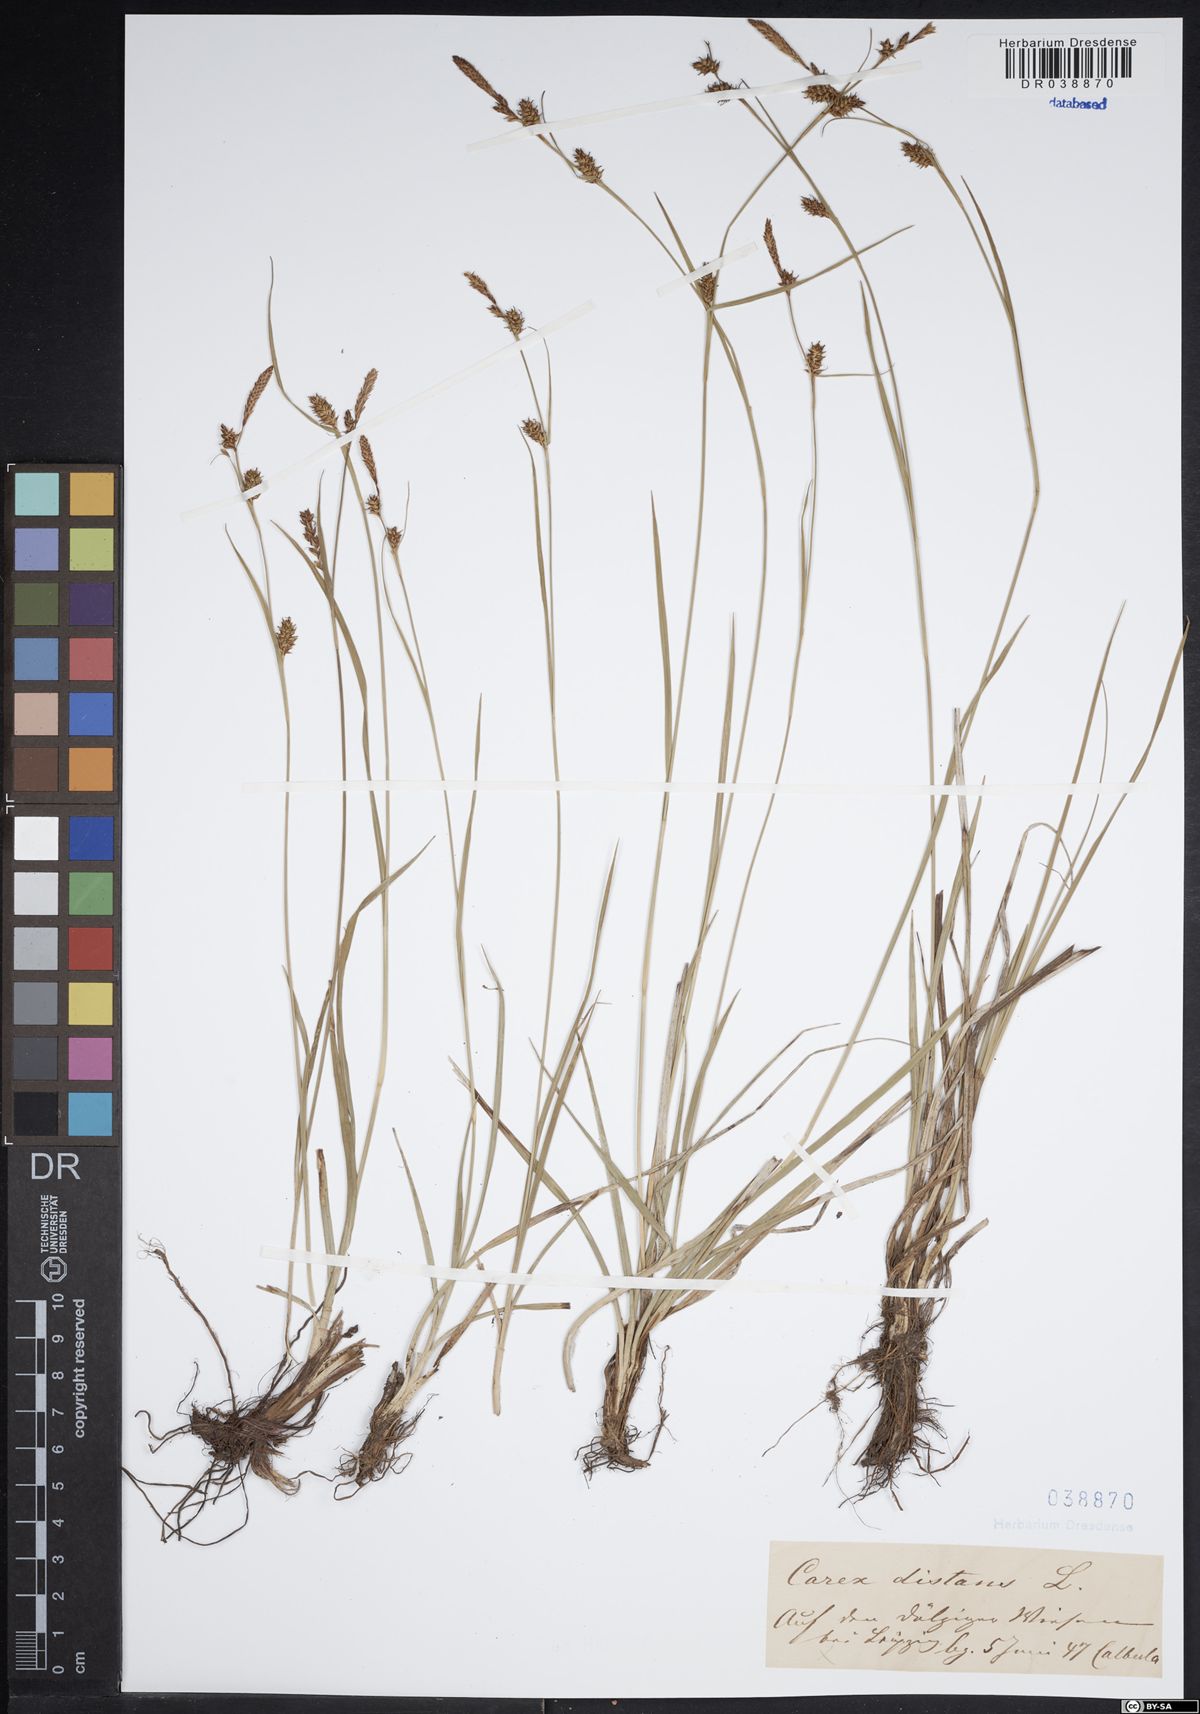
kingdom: Plantae
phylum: Tracheophyta
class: Liliopsida
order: Poales
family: Cyperaceae
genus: Carex
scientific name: Carex distans
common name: Distant sedge
